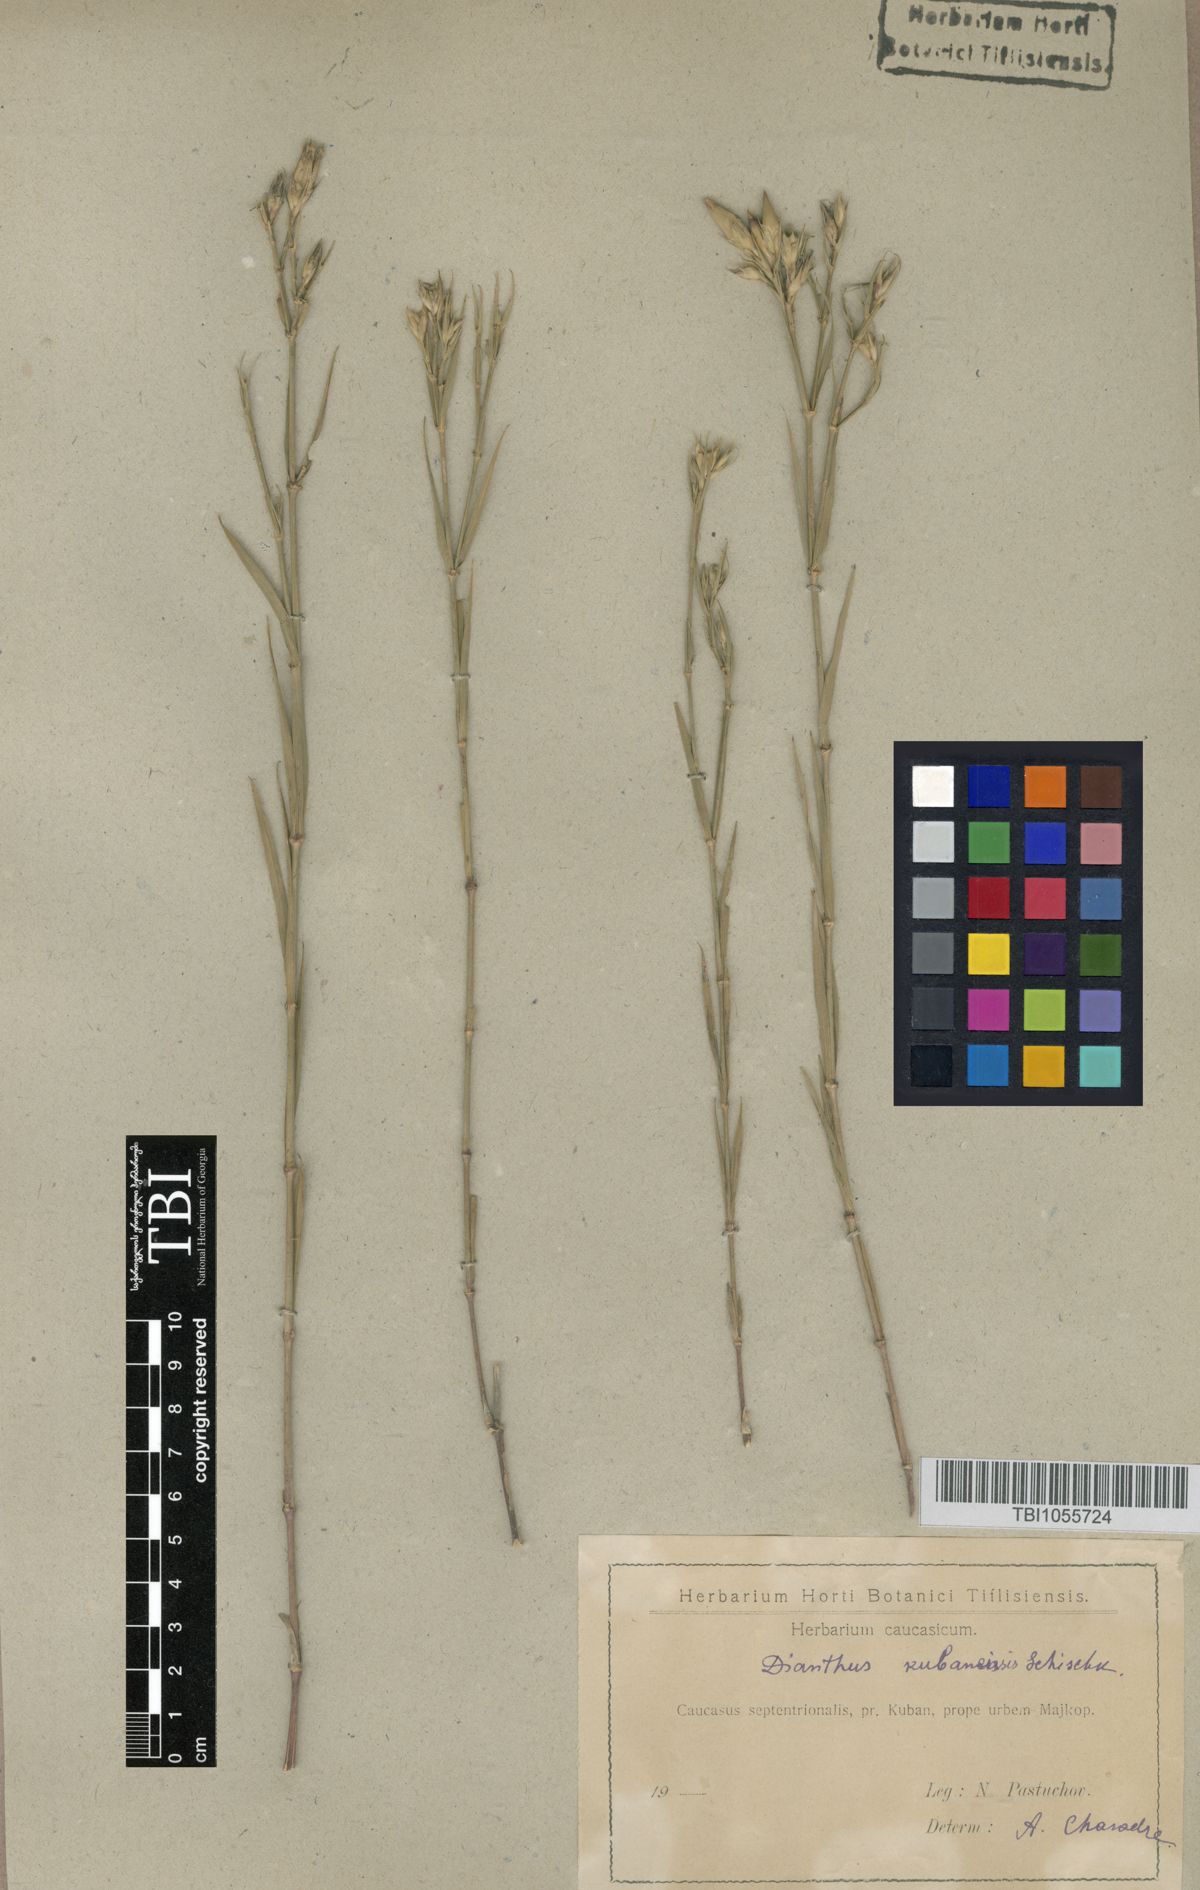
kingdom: Plantae
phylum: Tracheophyta
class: Magnoliopsida
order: Caryophyllales
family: Caryophyllaceae
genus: Dianthus
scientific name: Dianthus
